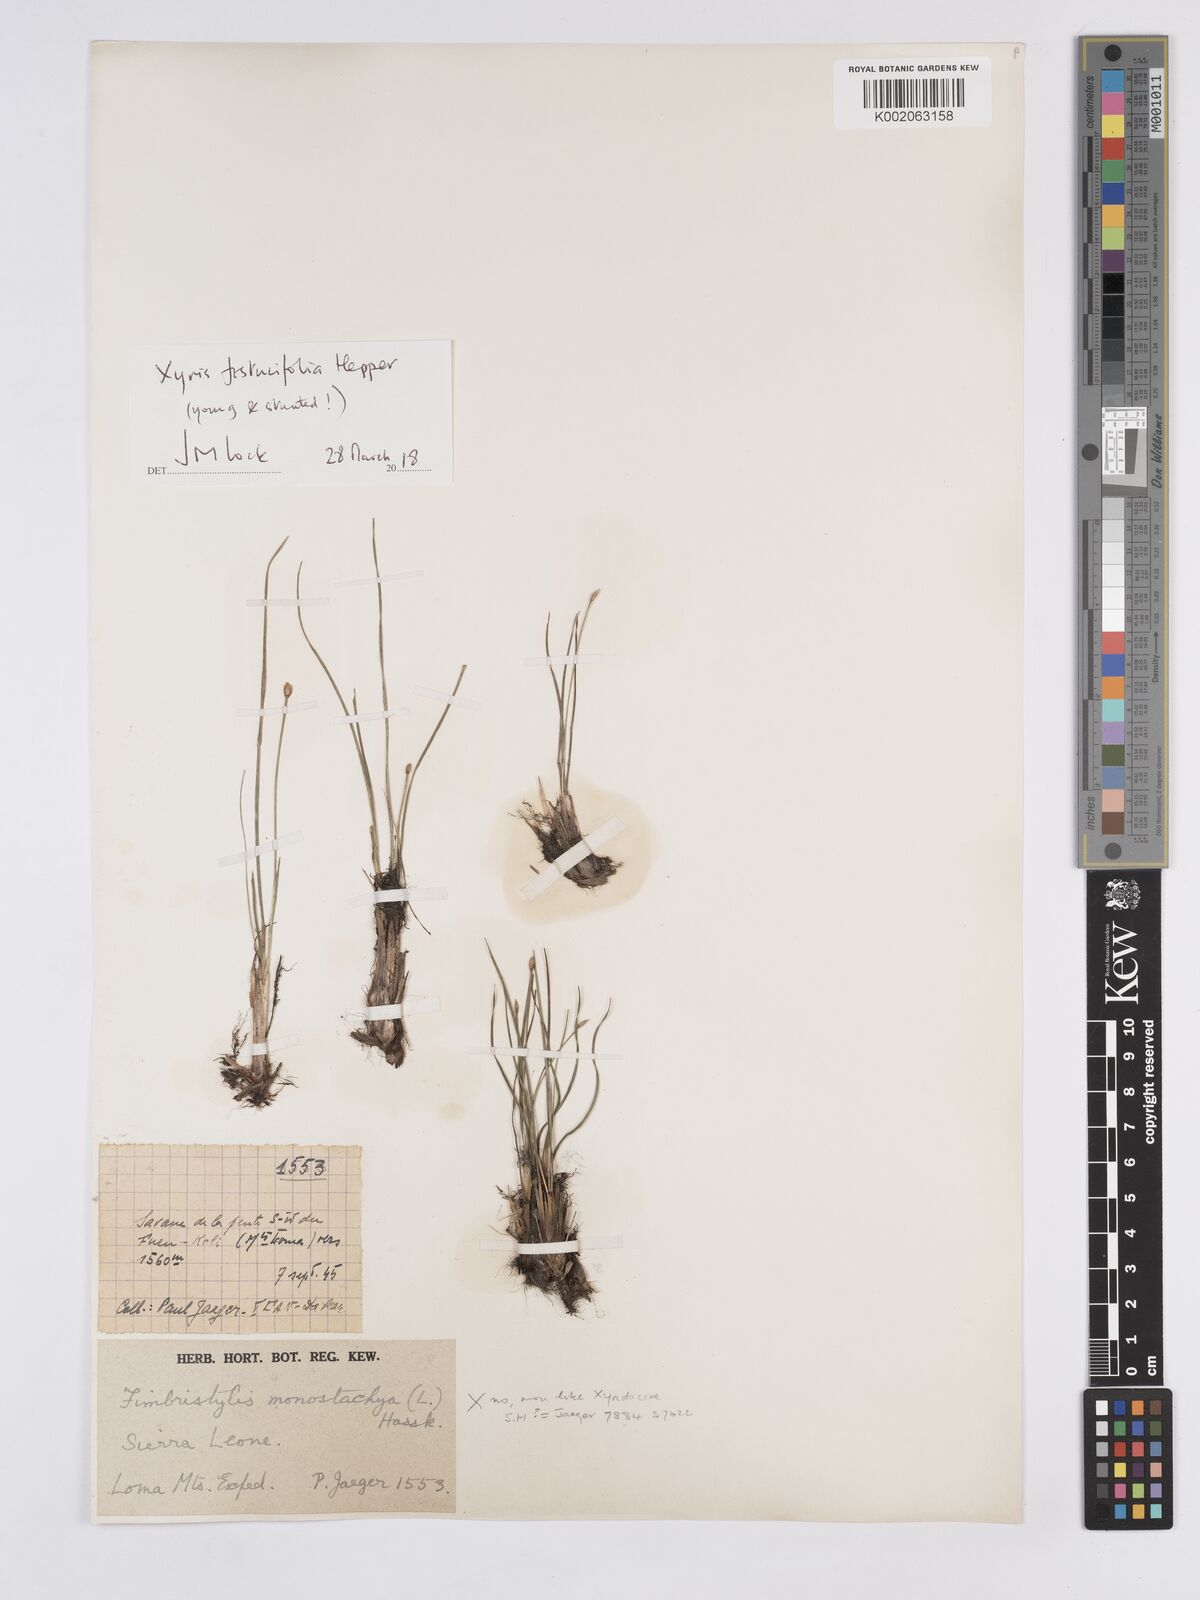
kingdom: Plantae
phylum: Tracheophyta
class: Liliopsida
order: Poales
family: Xyridaceae
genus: Xyris
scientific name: Xyris festucifolia
